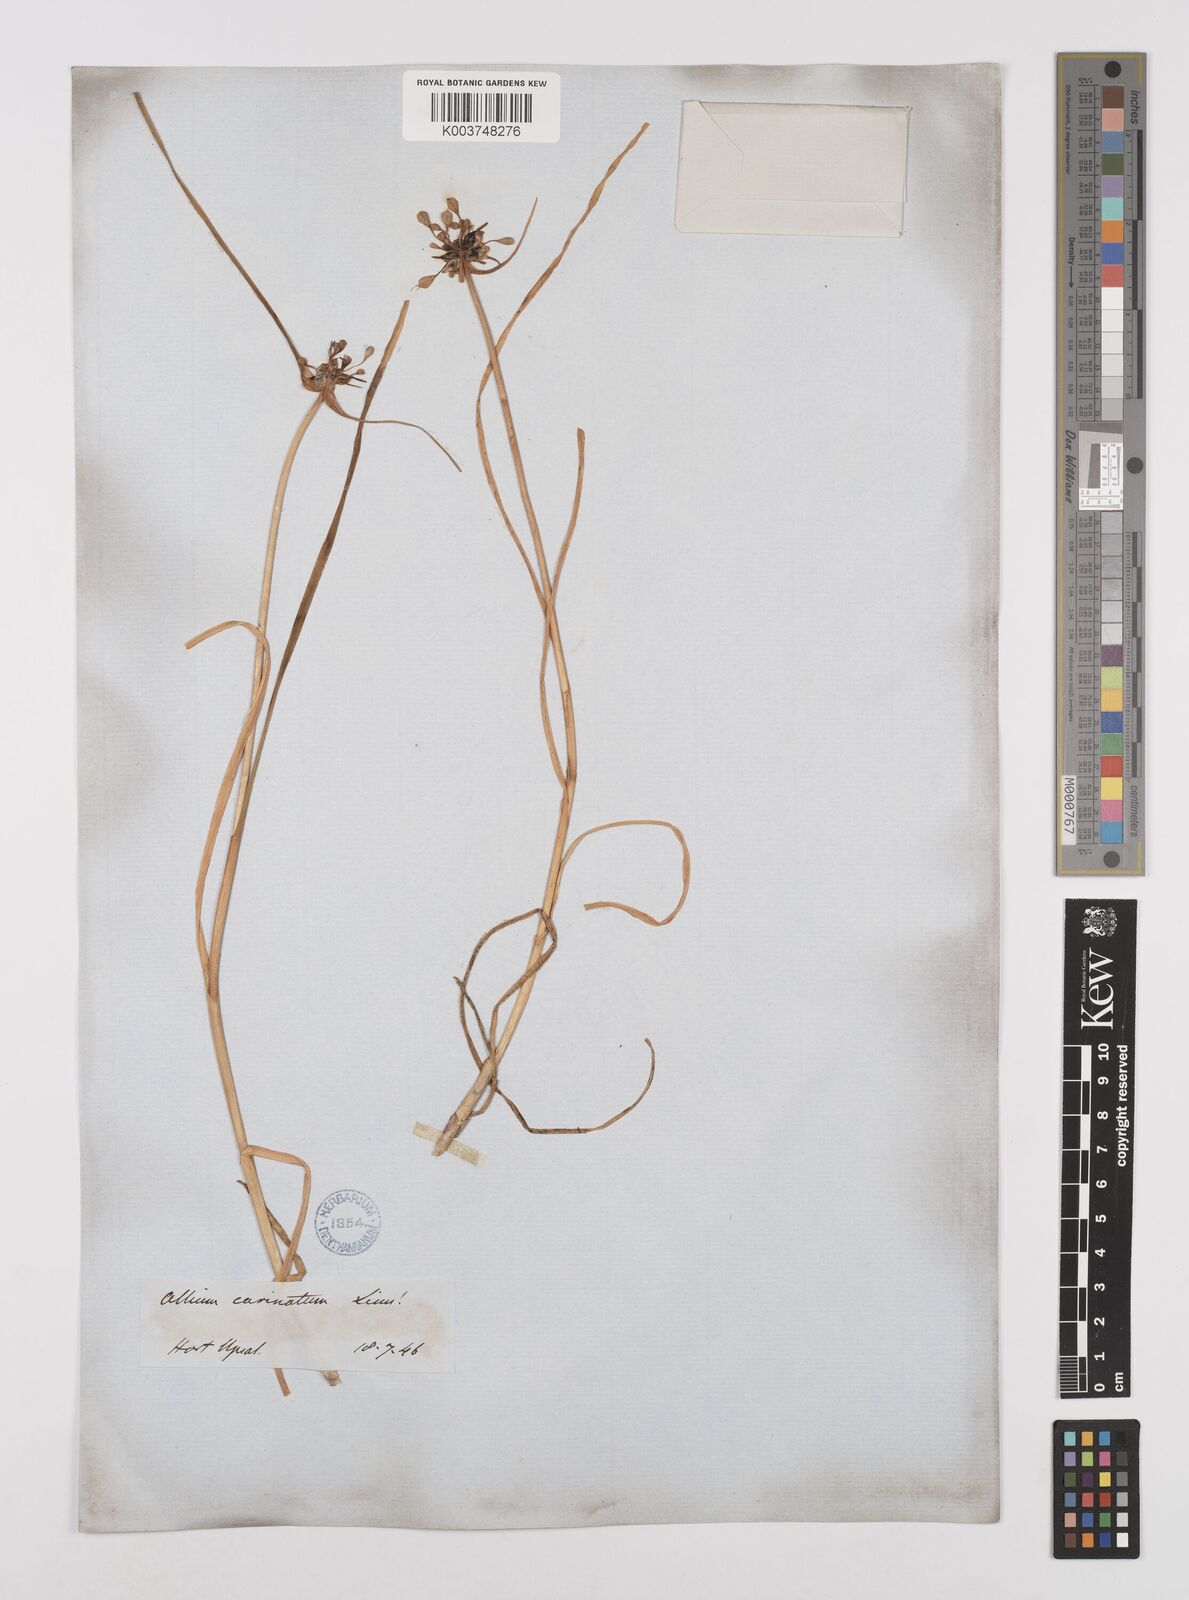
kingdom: Plantae
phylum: Tracheophyta
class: Liliopsida
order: Asparagales
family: Amaryllidaceae
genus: Allium
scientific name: Allium carinatum
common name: Keeled garlic
